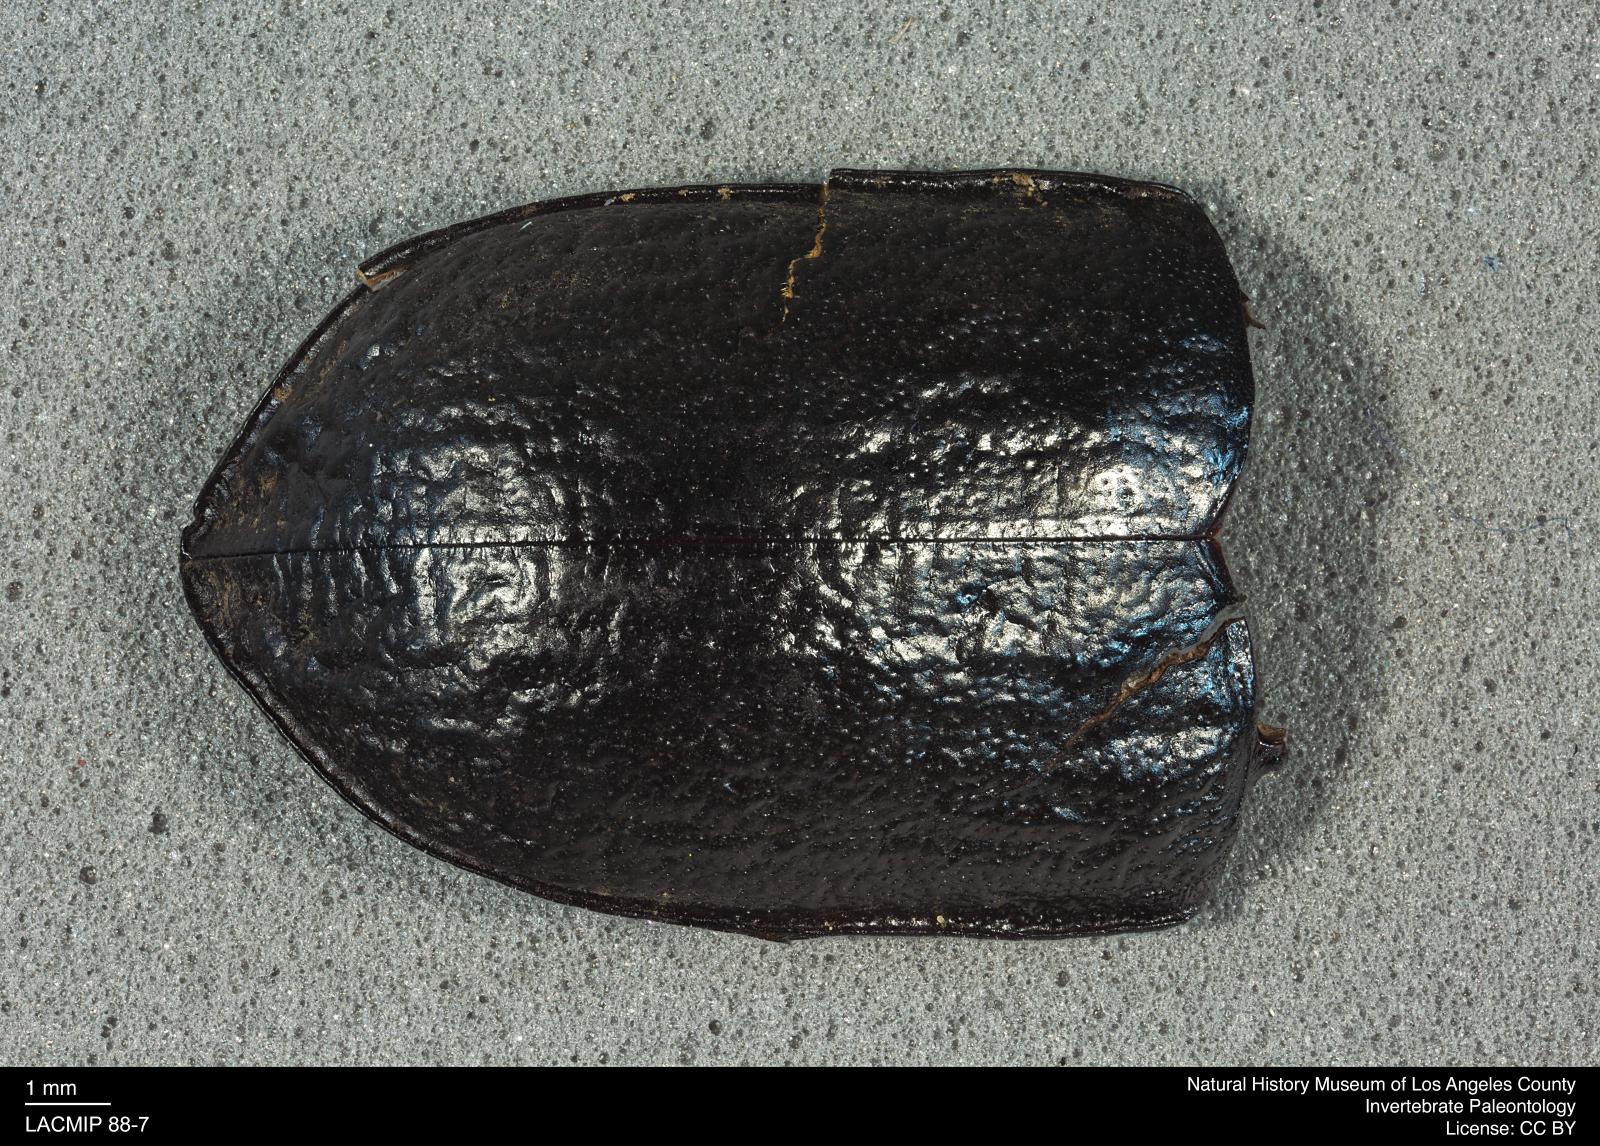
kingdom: Animalia
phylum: Arthropoda
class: Insecta
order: Coleoptera
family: Tenebrionidae
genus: Coniontis
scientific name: Coniontis abdominalis
